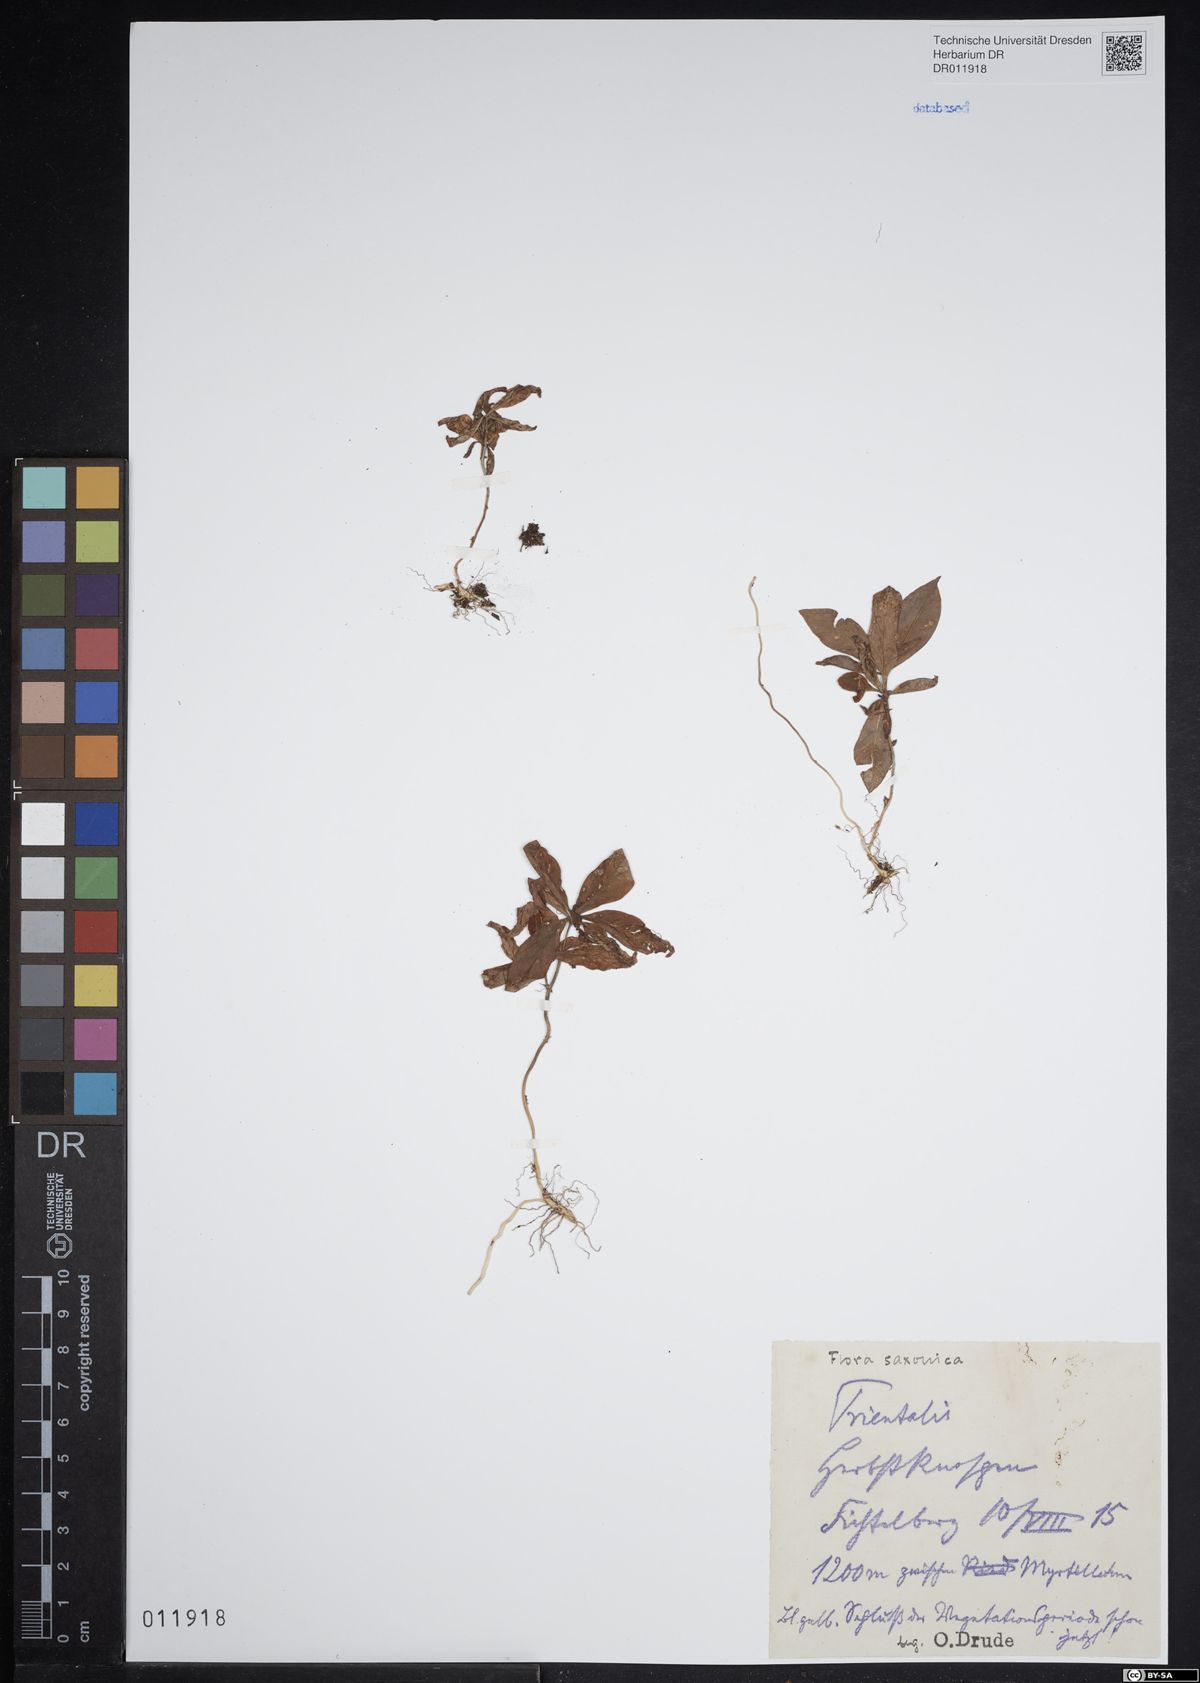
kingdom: Plantae
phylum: Tracheophyta
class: Magnoliopsida
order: Ericales
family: Primulaceae
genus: Lysimachia
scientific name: Lysimachia europaea
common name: Arctic starflower
